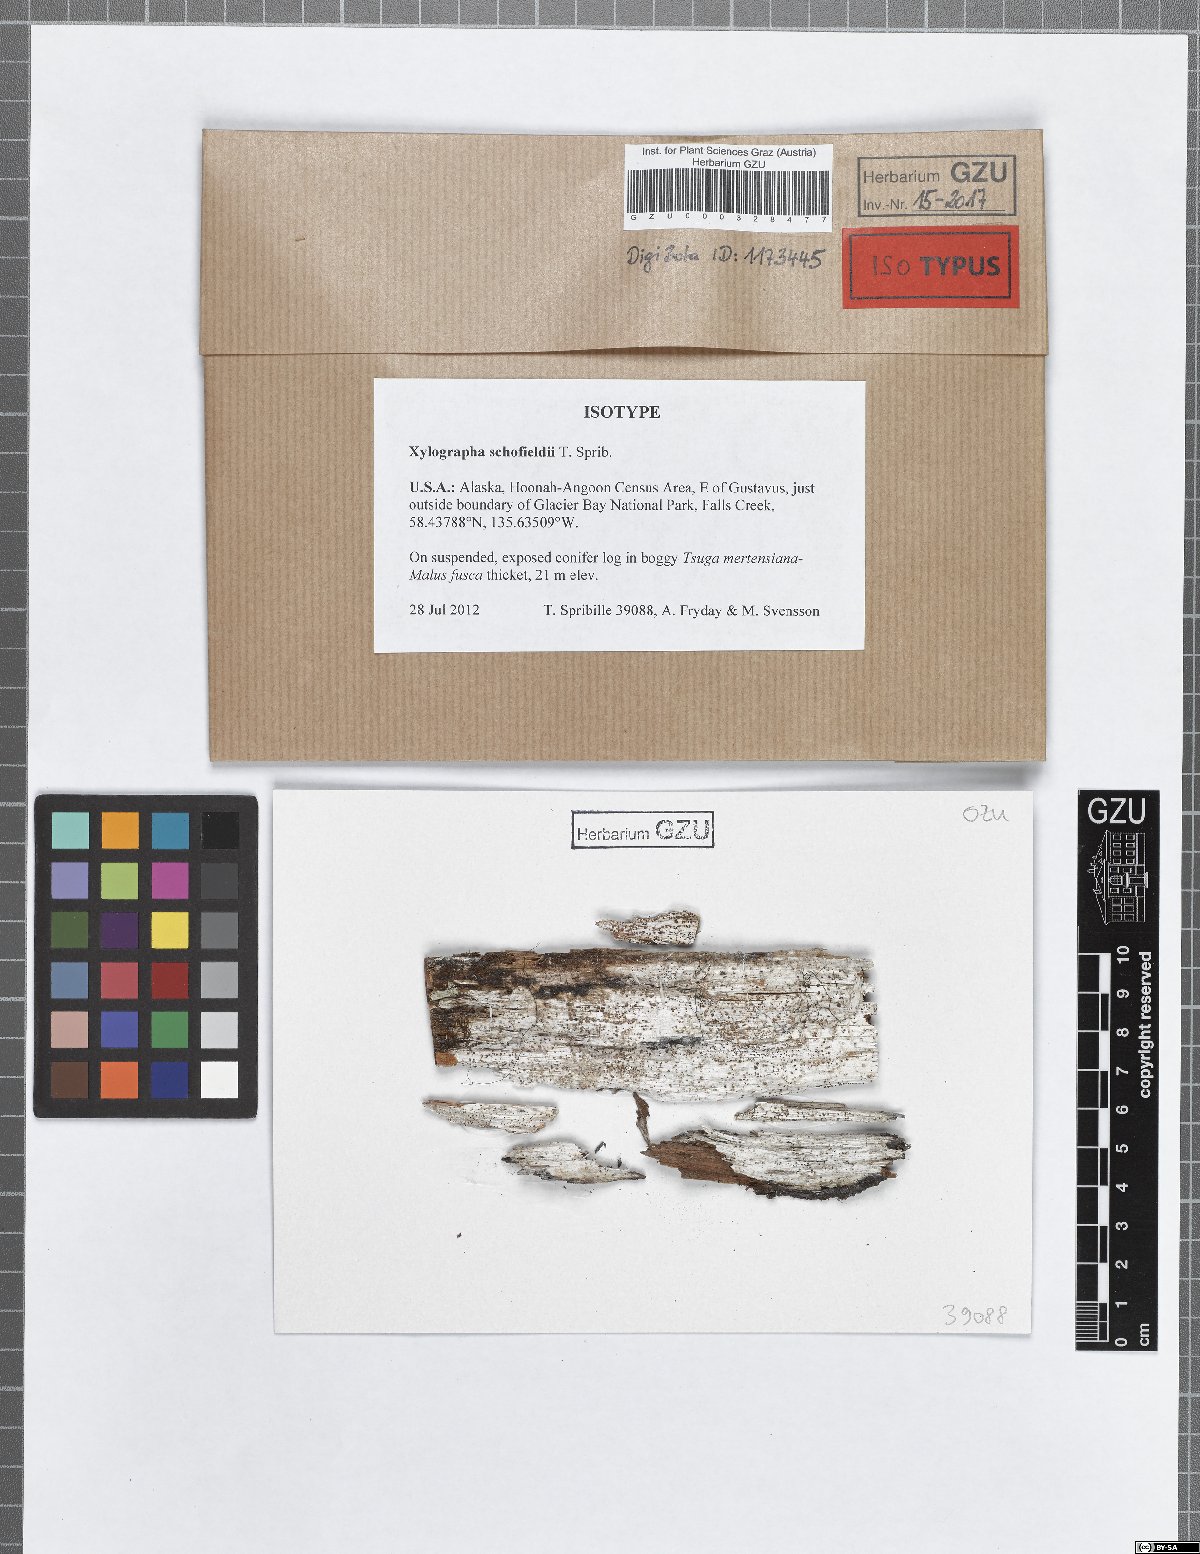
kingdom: Fungi
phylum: Ascomycota
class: Lecanoromycetes
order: Baeomycetales
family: Xylographaceae
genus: Xylographa
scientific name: Xylographa schofieldii
